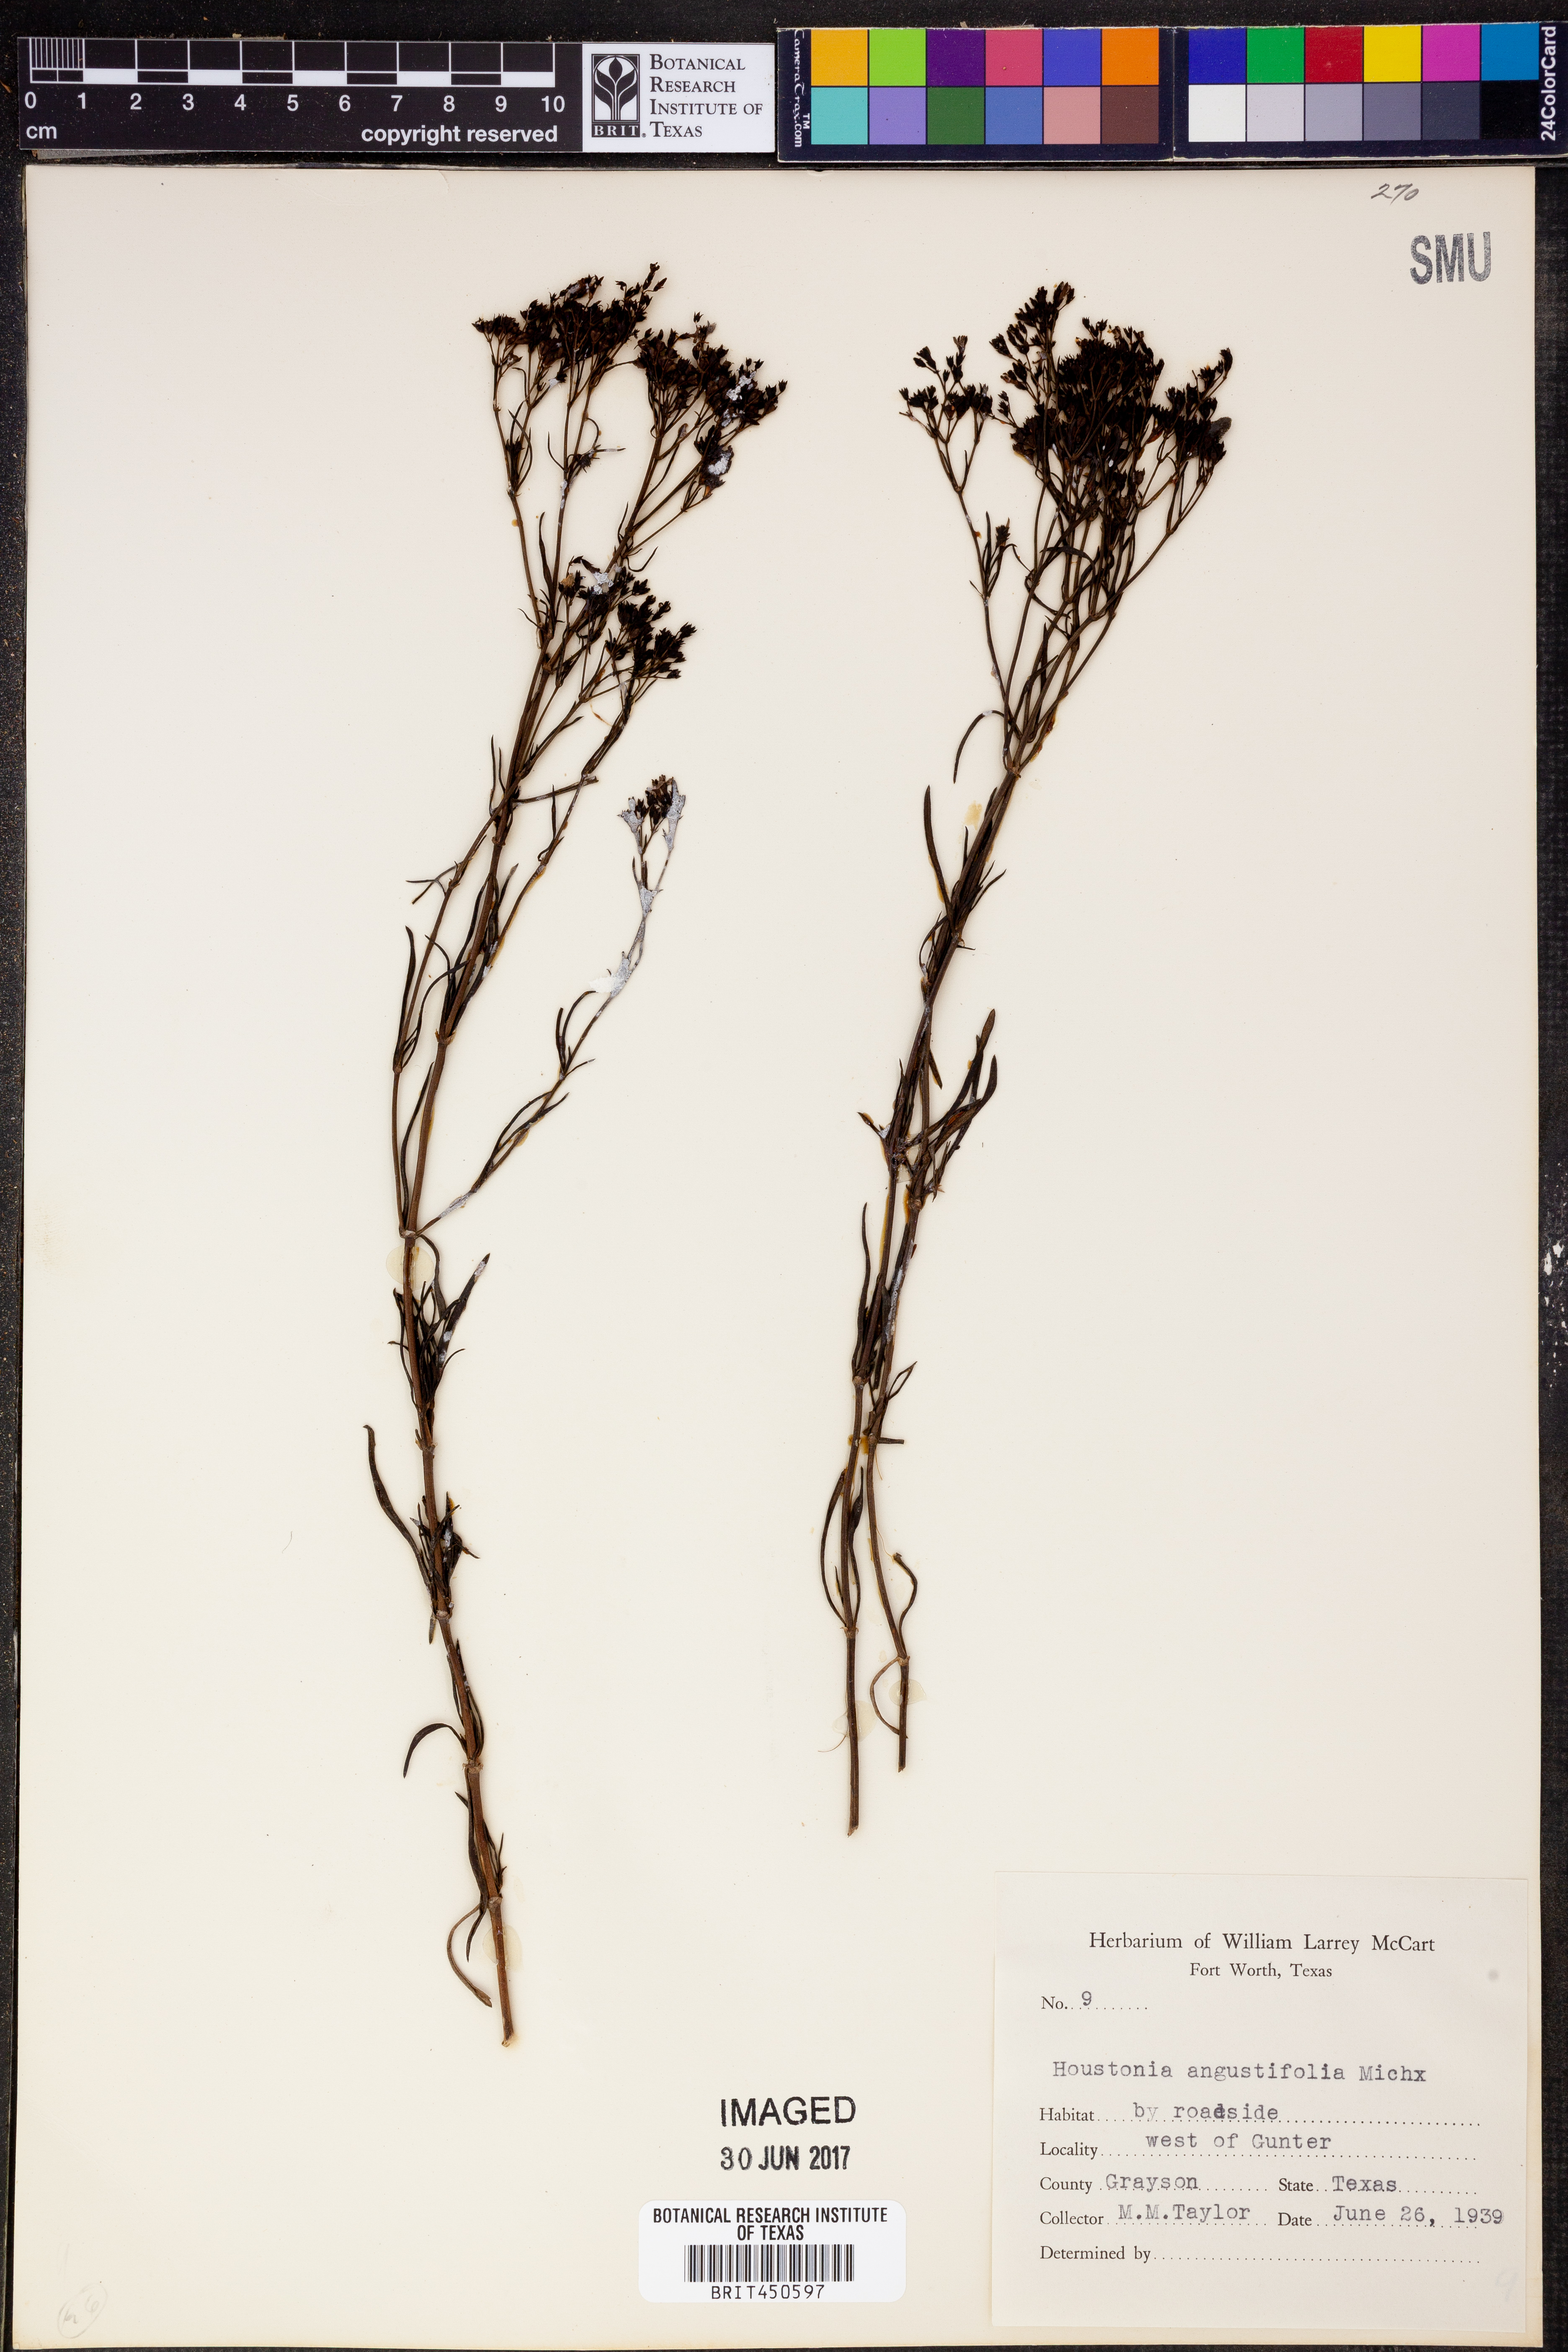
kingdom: Plantae
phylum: Tracheophyta
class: Magnoliopsida
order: Gentianales
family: Rubiaceae
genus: Stenaria
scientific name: Stenaria nigricans
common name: Diamondflowers
